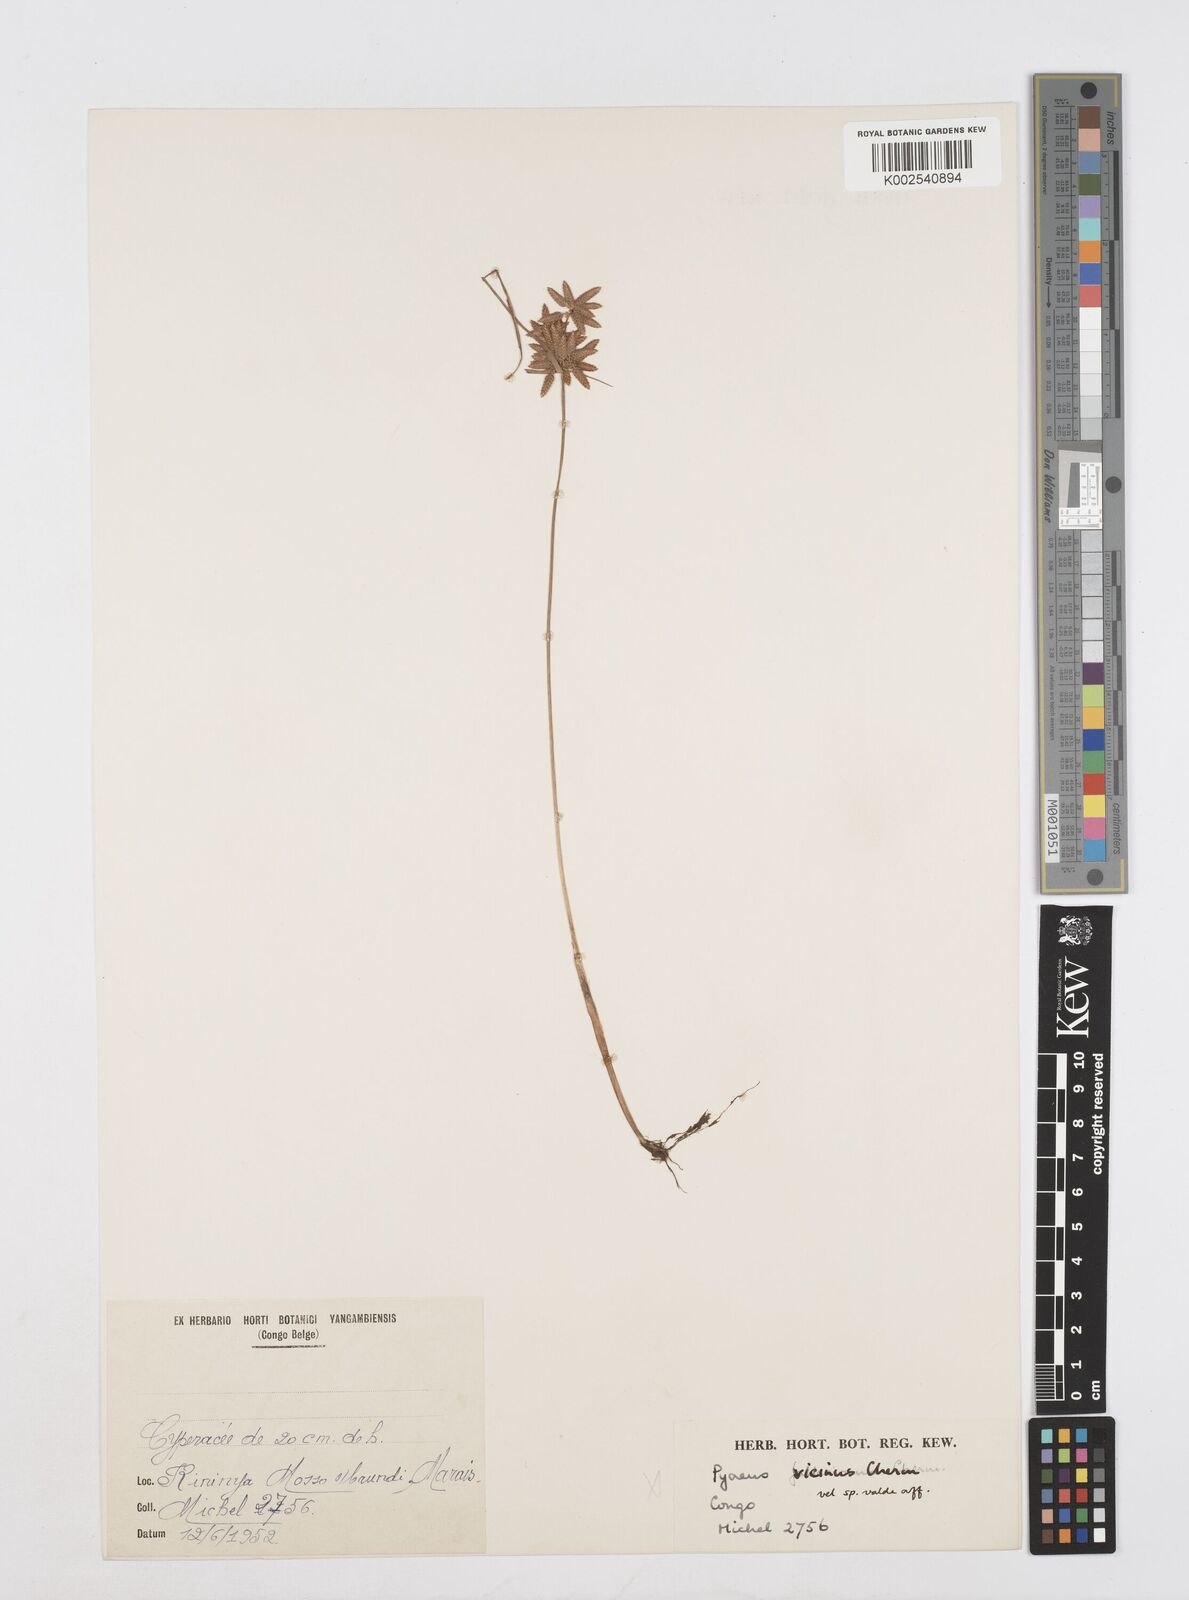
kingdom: Plantae
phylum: Tracheophyta
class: Liliopsida
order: Poales
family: Cyperaceae
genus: Cyperus
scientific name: Cyperus
